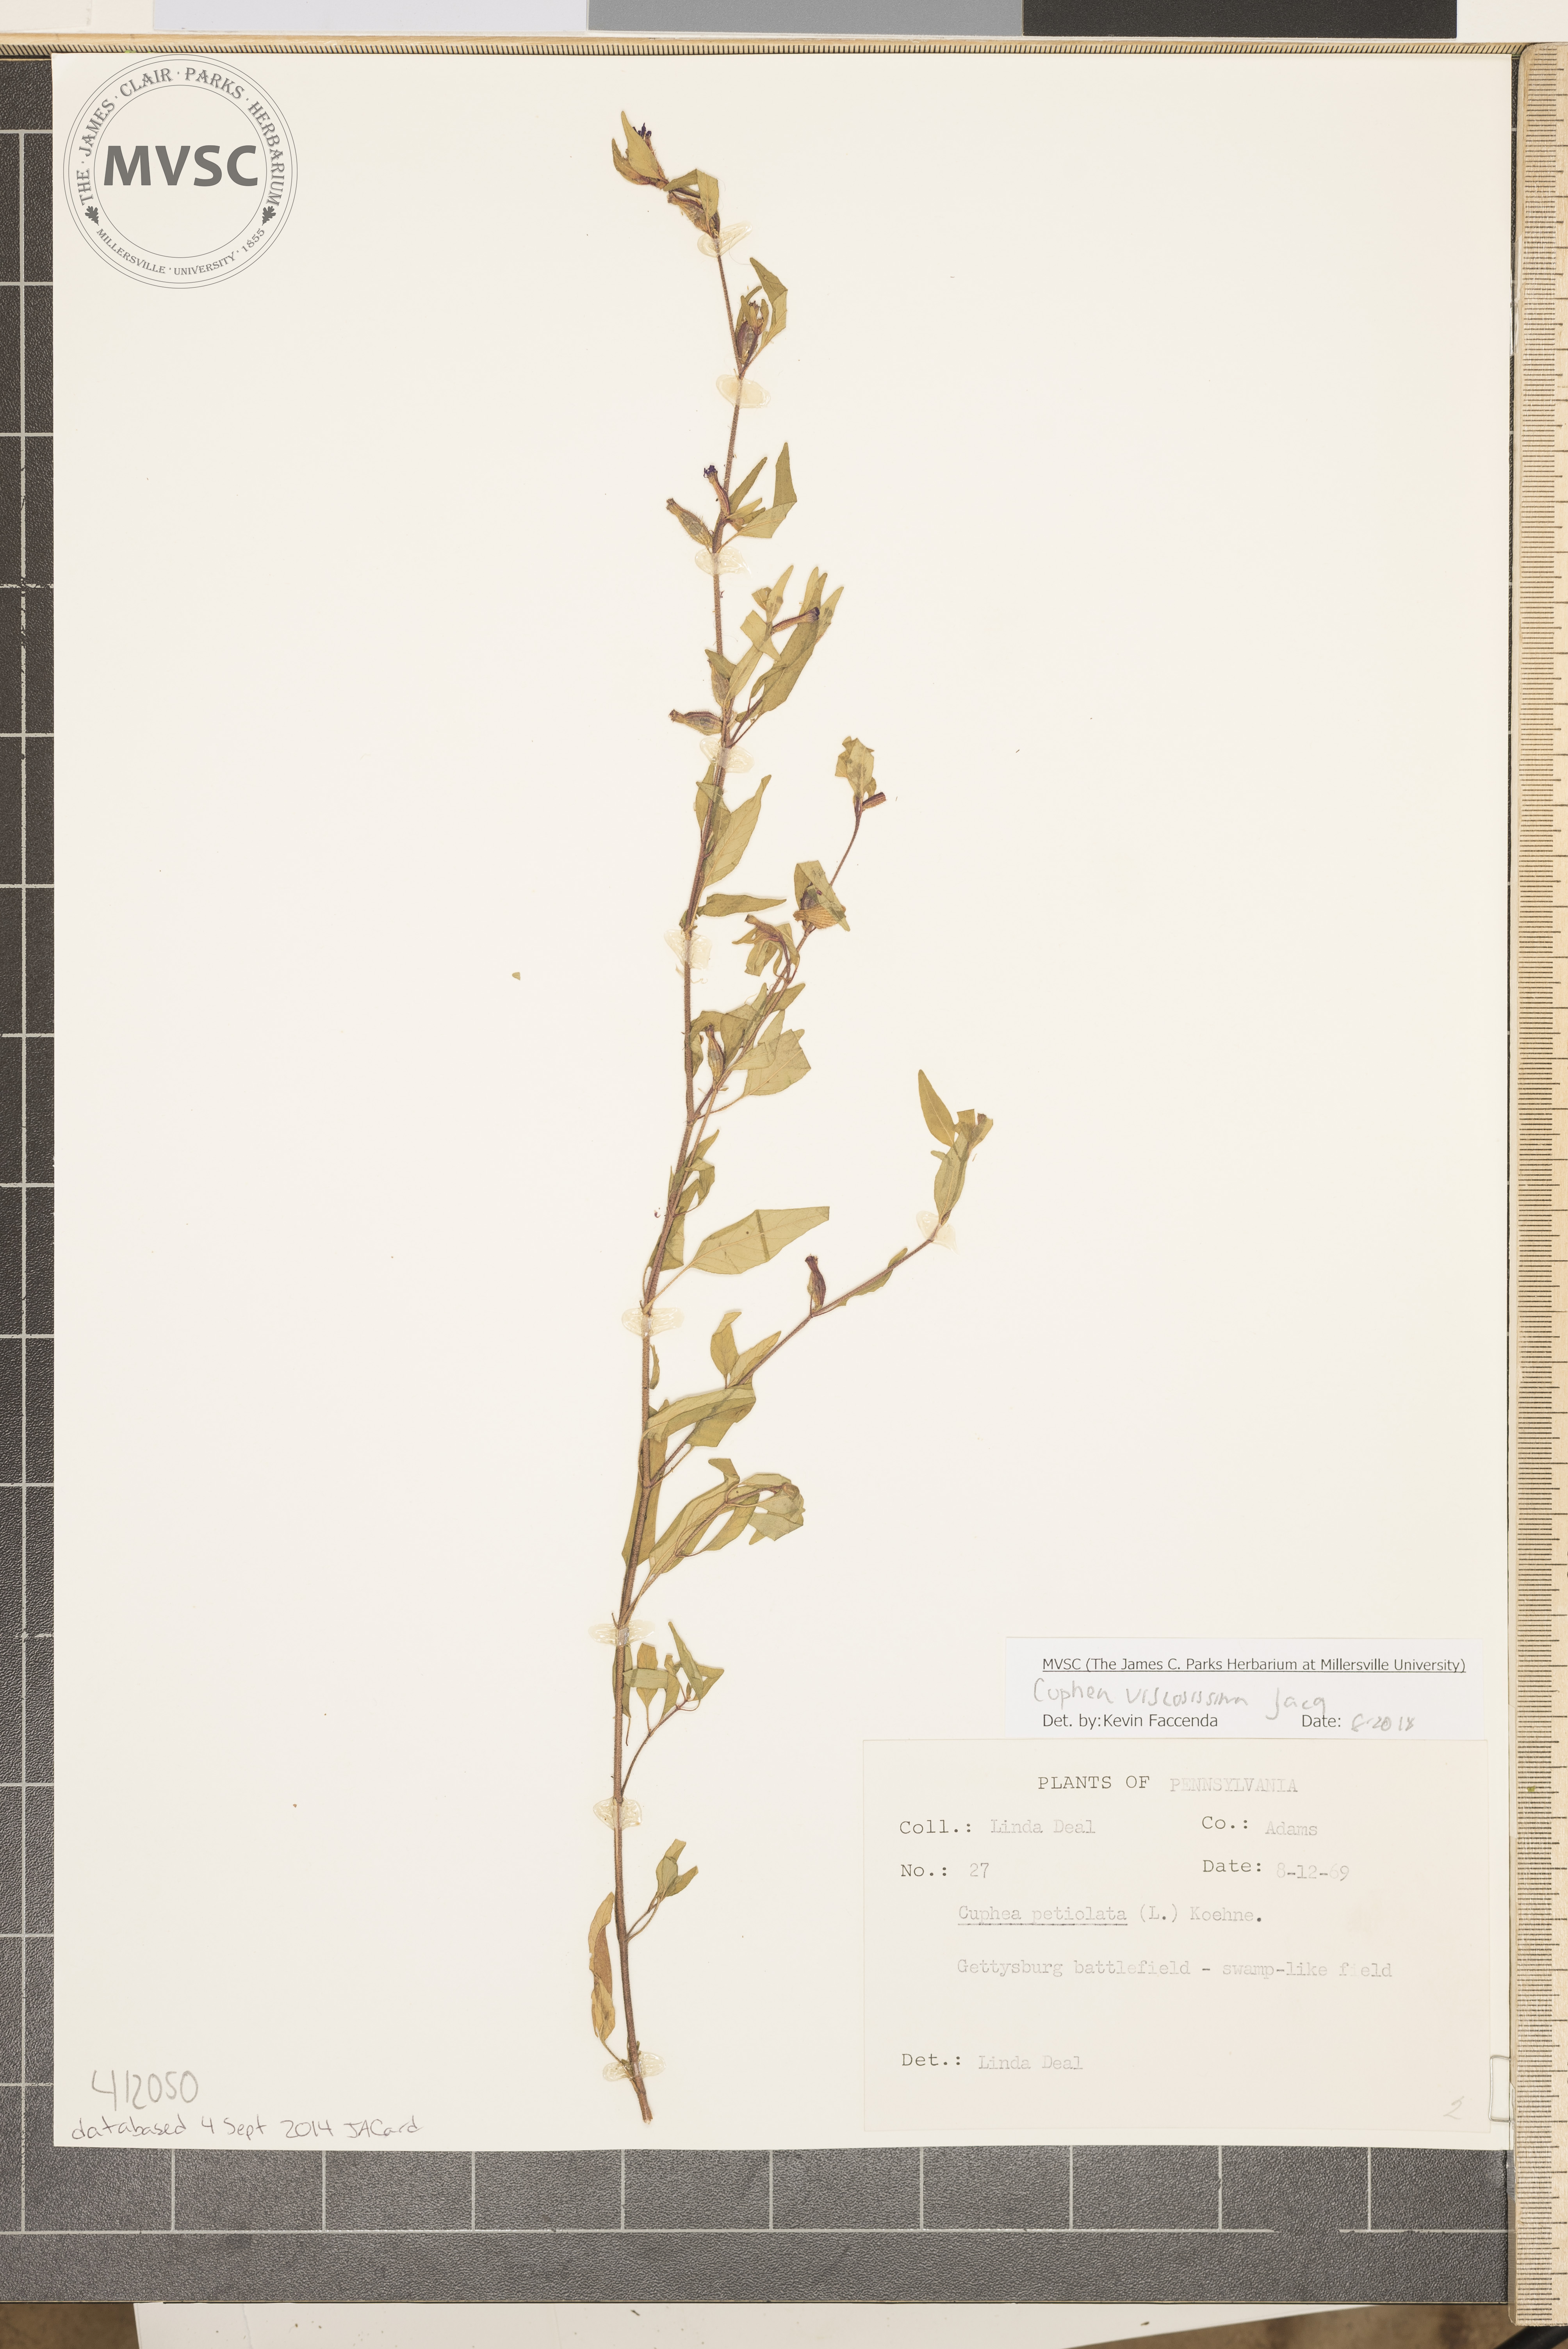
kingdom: Plantae
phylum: Tracheophyta
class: Magnoliopsida
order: Myrtales
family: Lythraceae
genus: Cuphea
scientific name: Cuphea viscosissima
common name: Clammy cuphea
